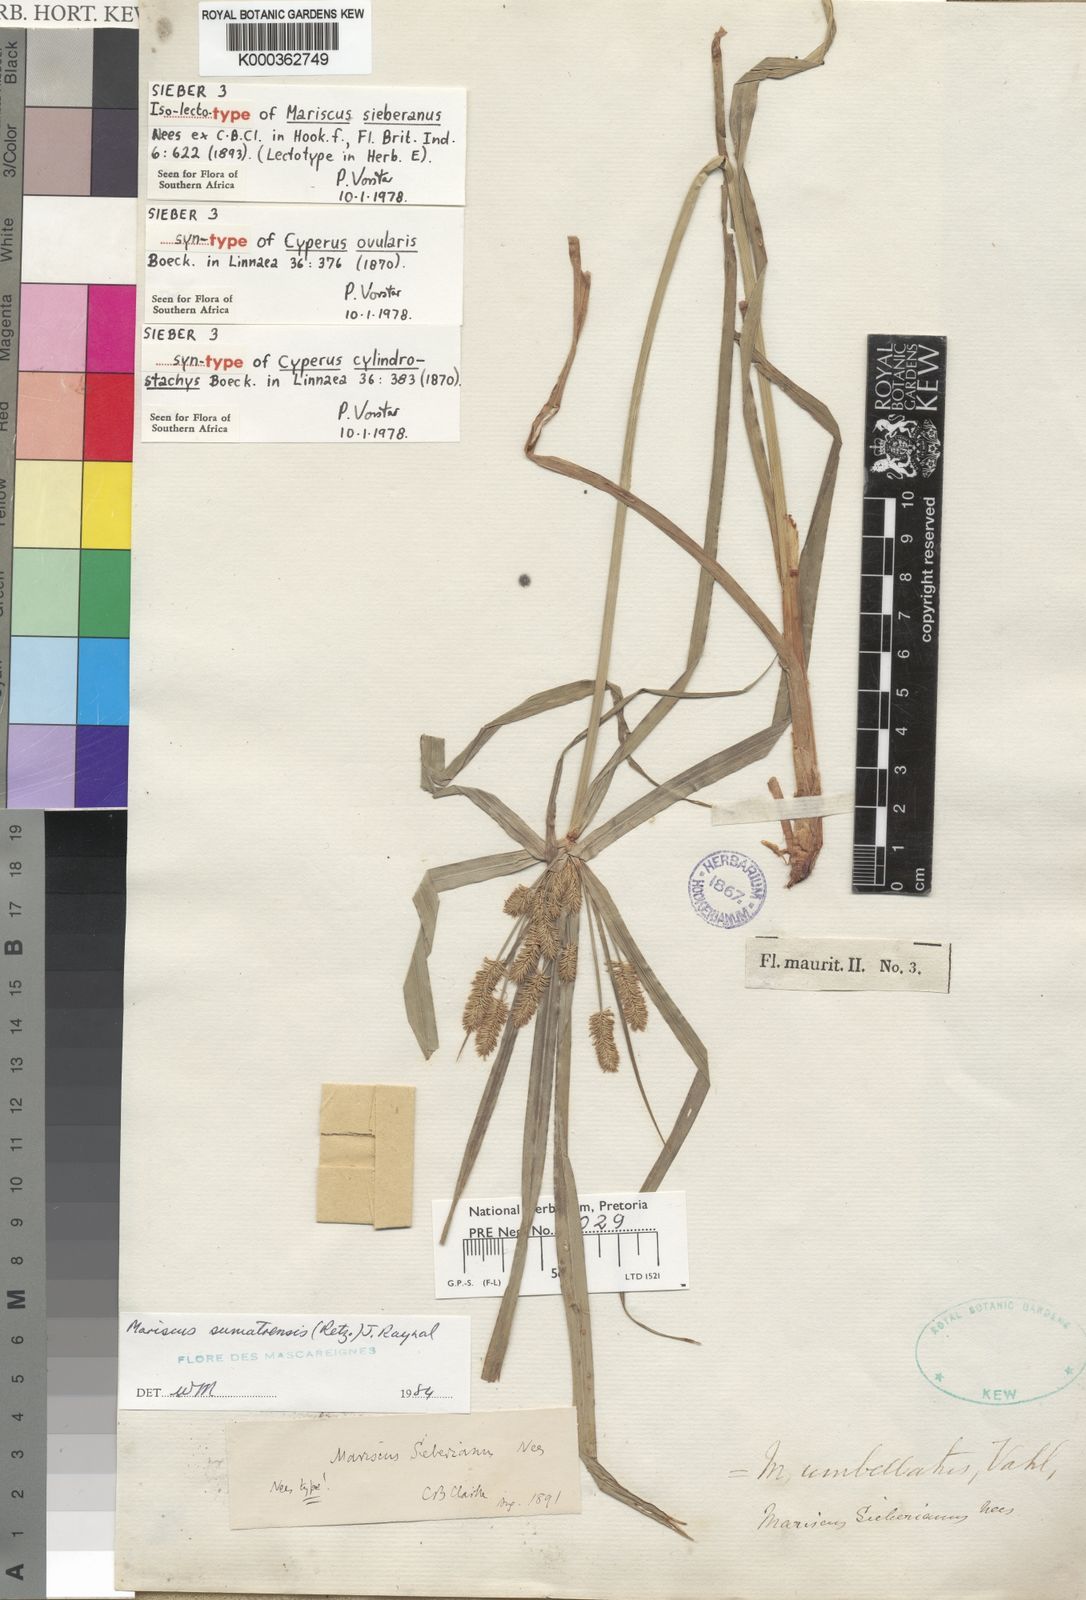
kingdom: Plantae
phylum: Tracheophyta
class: Liliopsida
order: Poales
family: Cyperaceae
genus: Cyperus
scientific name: Cyperus cyperoides
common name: Pacific island flat sedge
